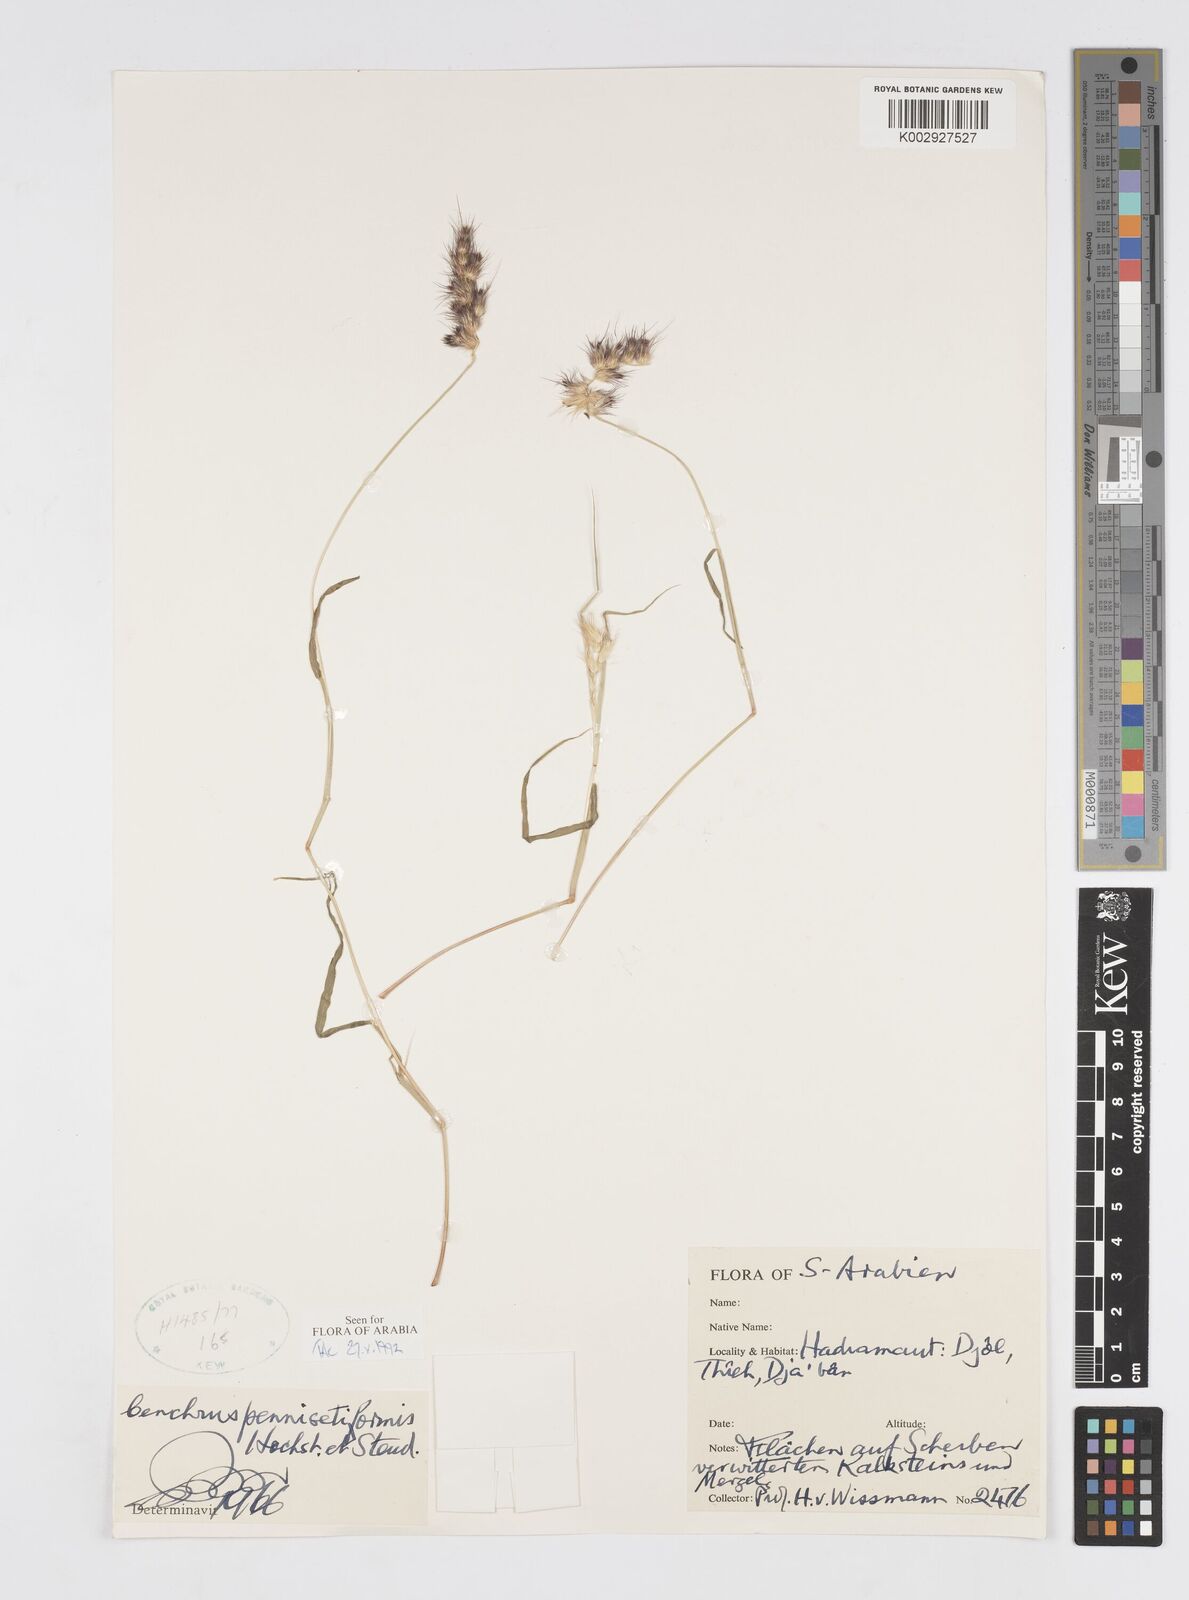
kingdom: Plantae
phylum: Tracheophyta
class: Liliopsida
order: Poales
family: Poaceae
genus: Cenchrus
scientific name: Cenchrus pennisetiformis
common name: Cloncurry
